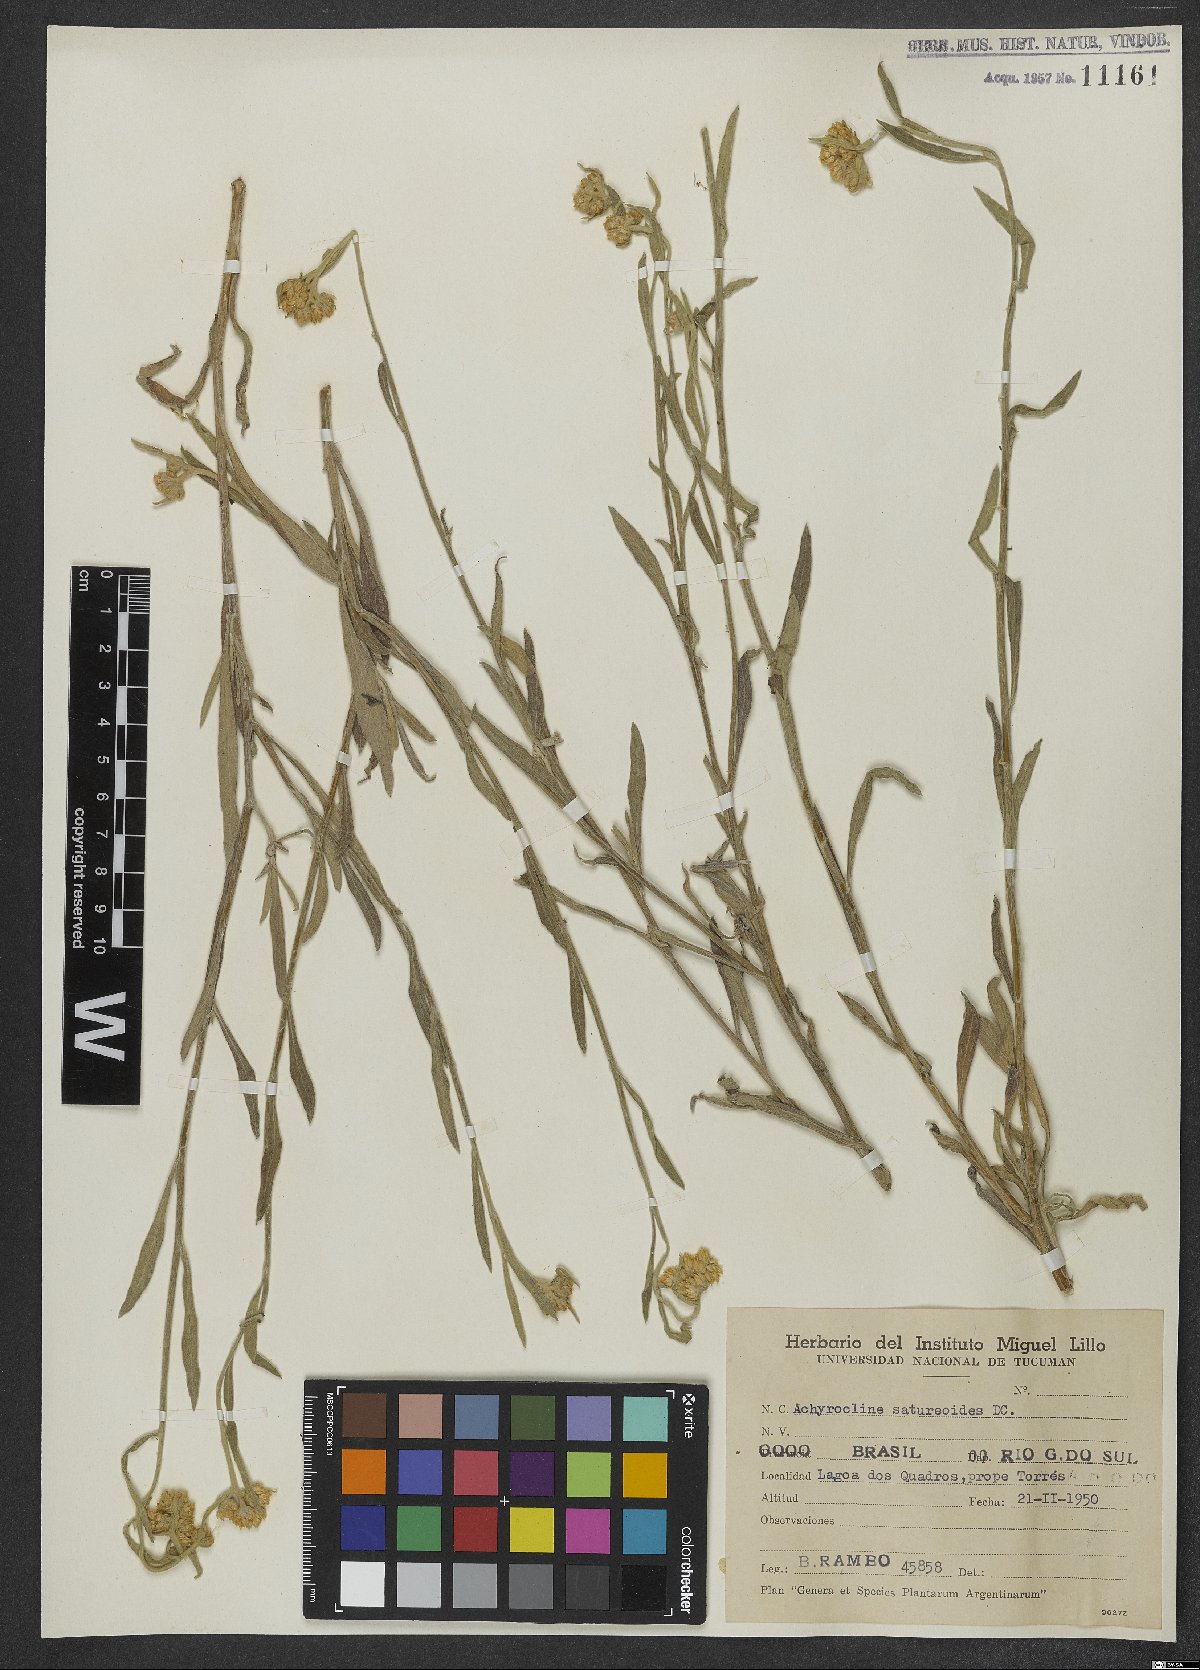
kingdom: Plantae
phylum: Tracheophyta
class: Magnoliopsida
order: Asterales
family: Asteraceae
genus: Achyrocline
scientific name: Achyrocline satureioides
